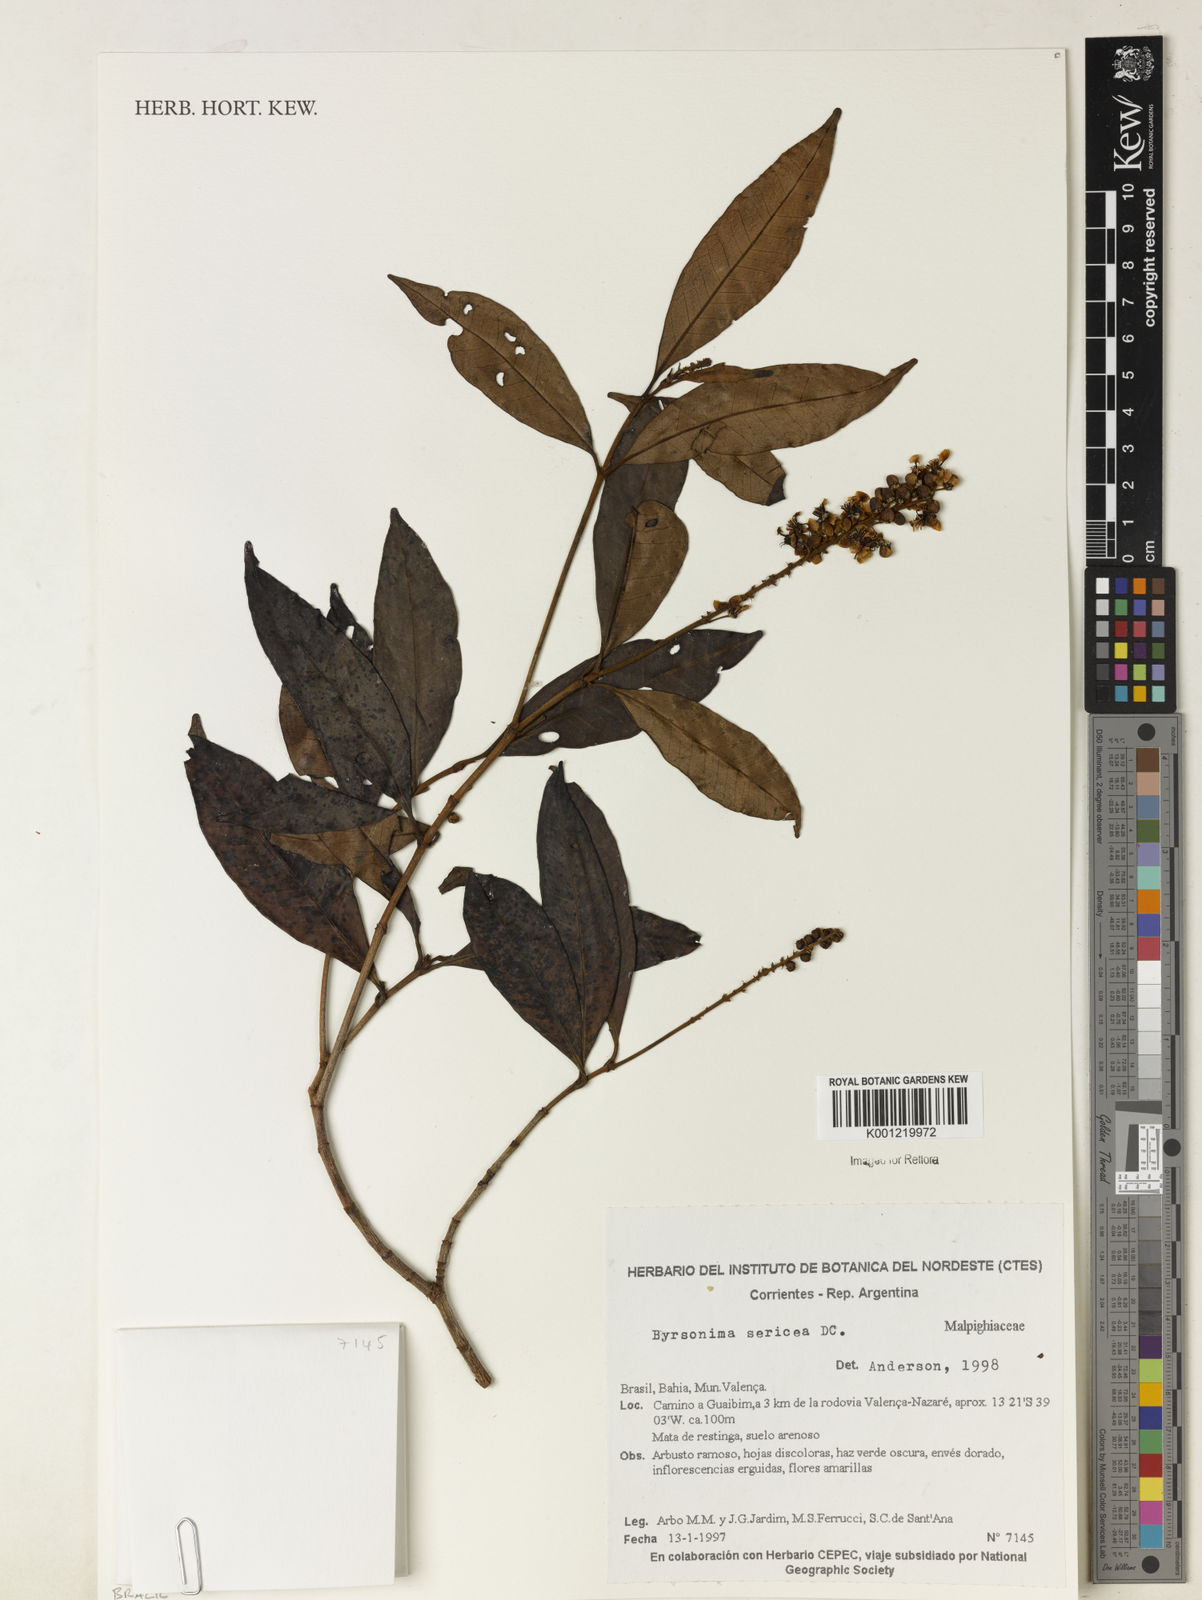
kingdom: Plantae
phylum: Tracheophyta
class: Magnoliopsida
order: Malpighiales
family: Malpighiaceae
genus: Byrsonima
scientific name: Byrsonima sericea
